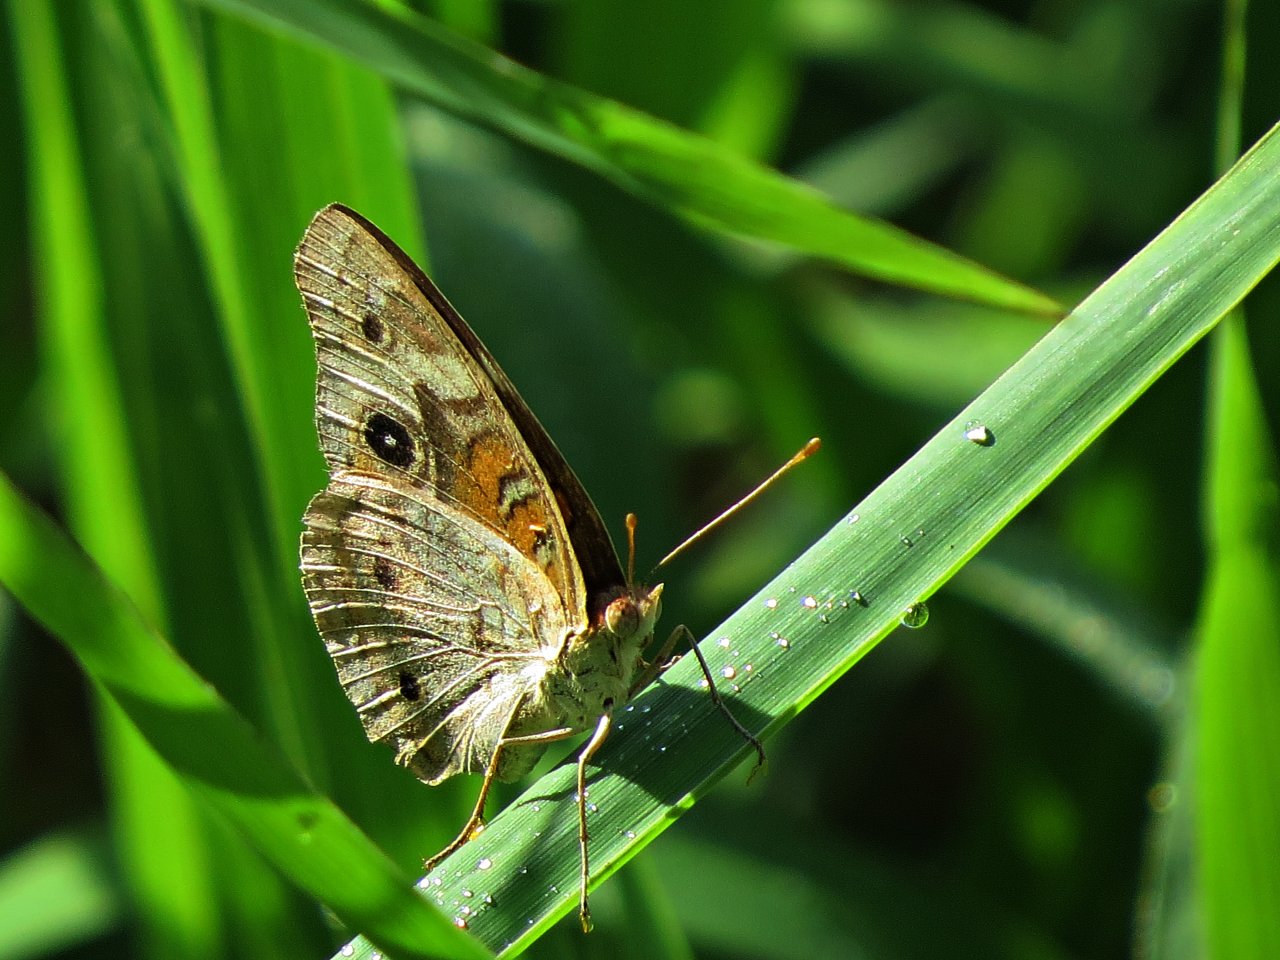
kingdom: Animalia
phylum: Arthropoda
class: Insecta
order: Lepidoptera
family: Nymphalidae
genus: Junonia
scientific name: Junonia coenia
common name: Common Buckeye
